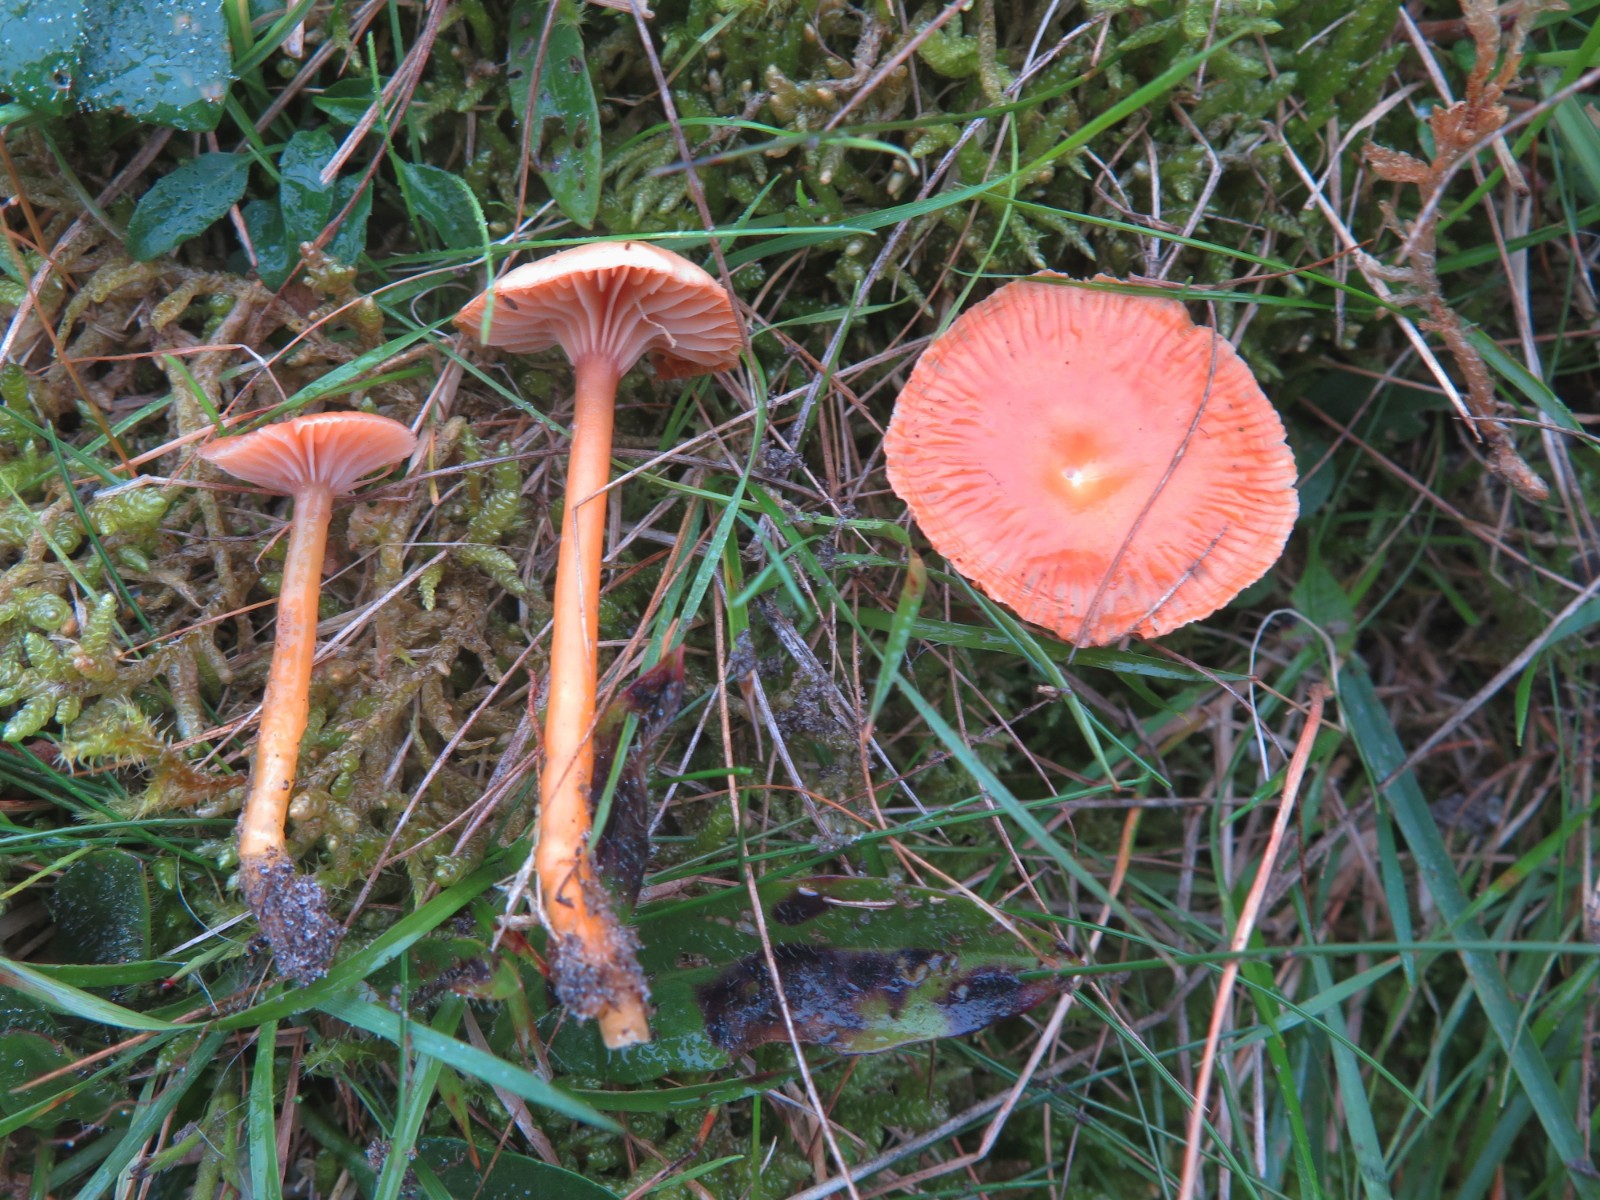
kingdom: Fungi
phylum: Basidiomycota
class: Agaricomycetes
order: Agaricales
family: Hygrophoraceae
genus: Gliophorus
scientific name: Gliophorus laetus
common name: brusk-vokshat
